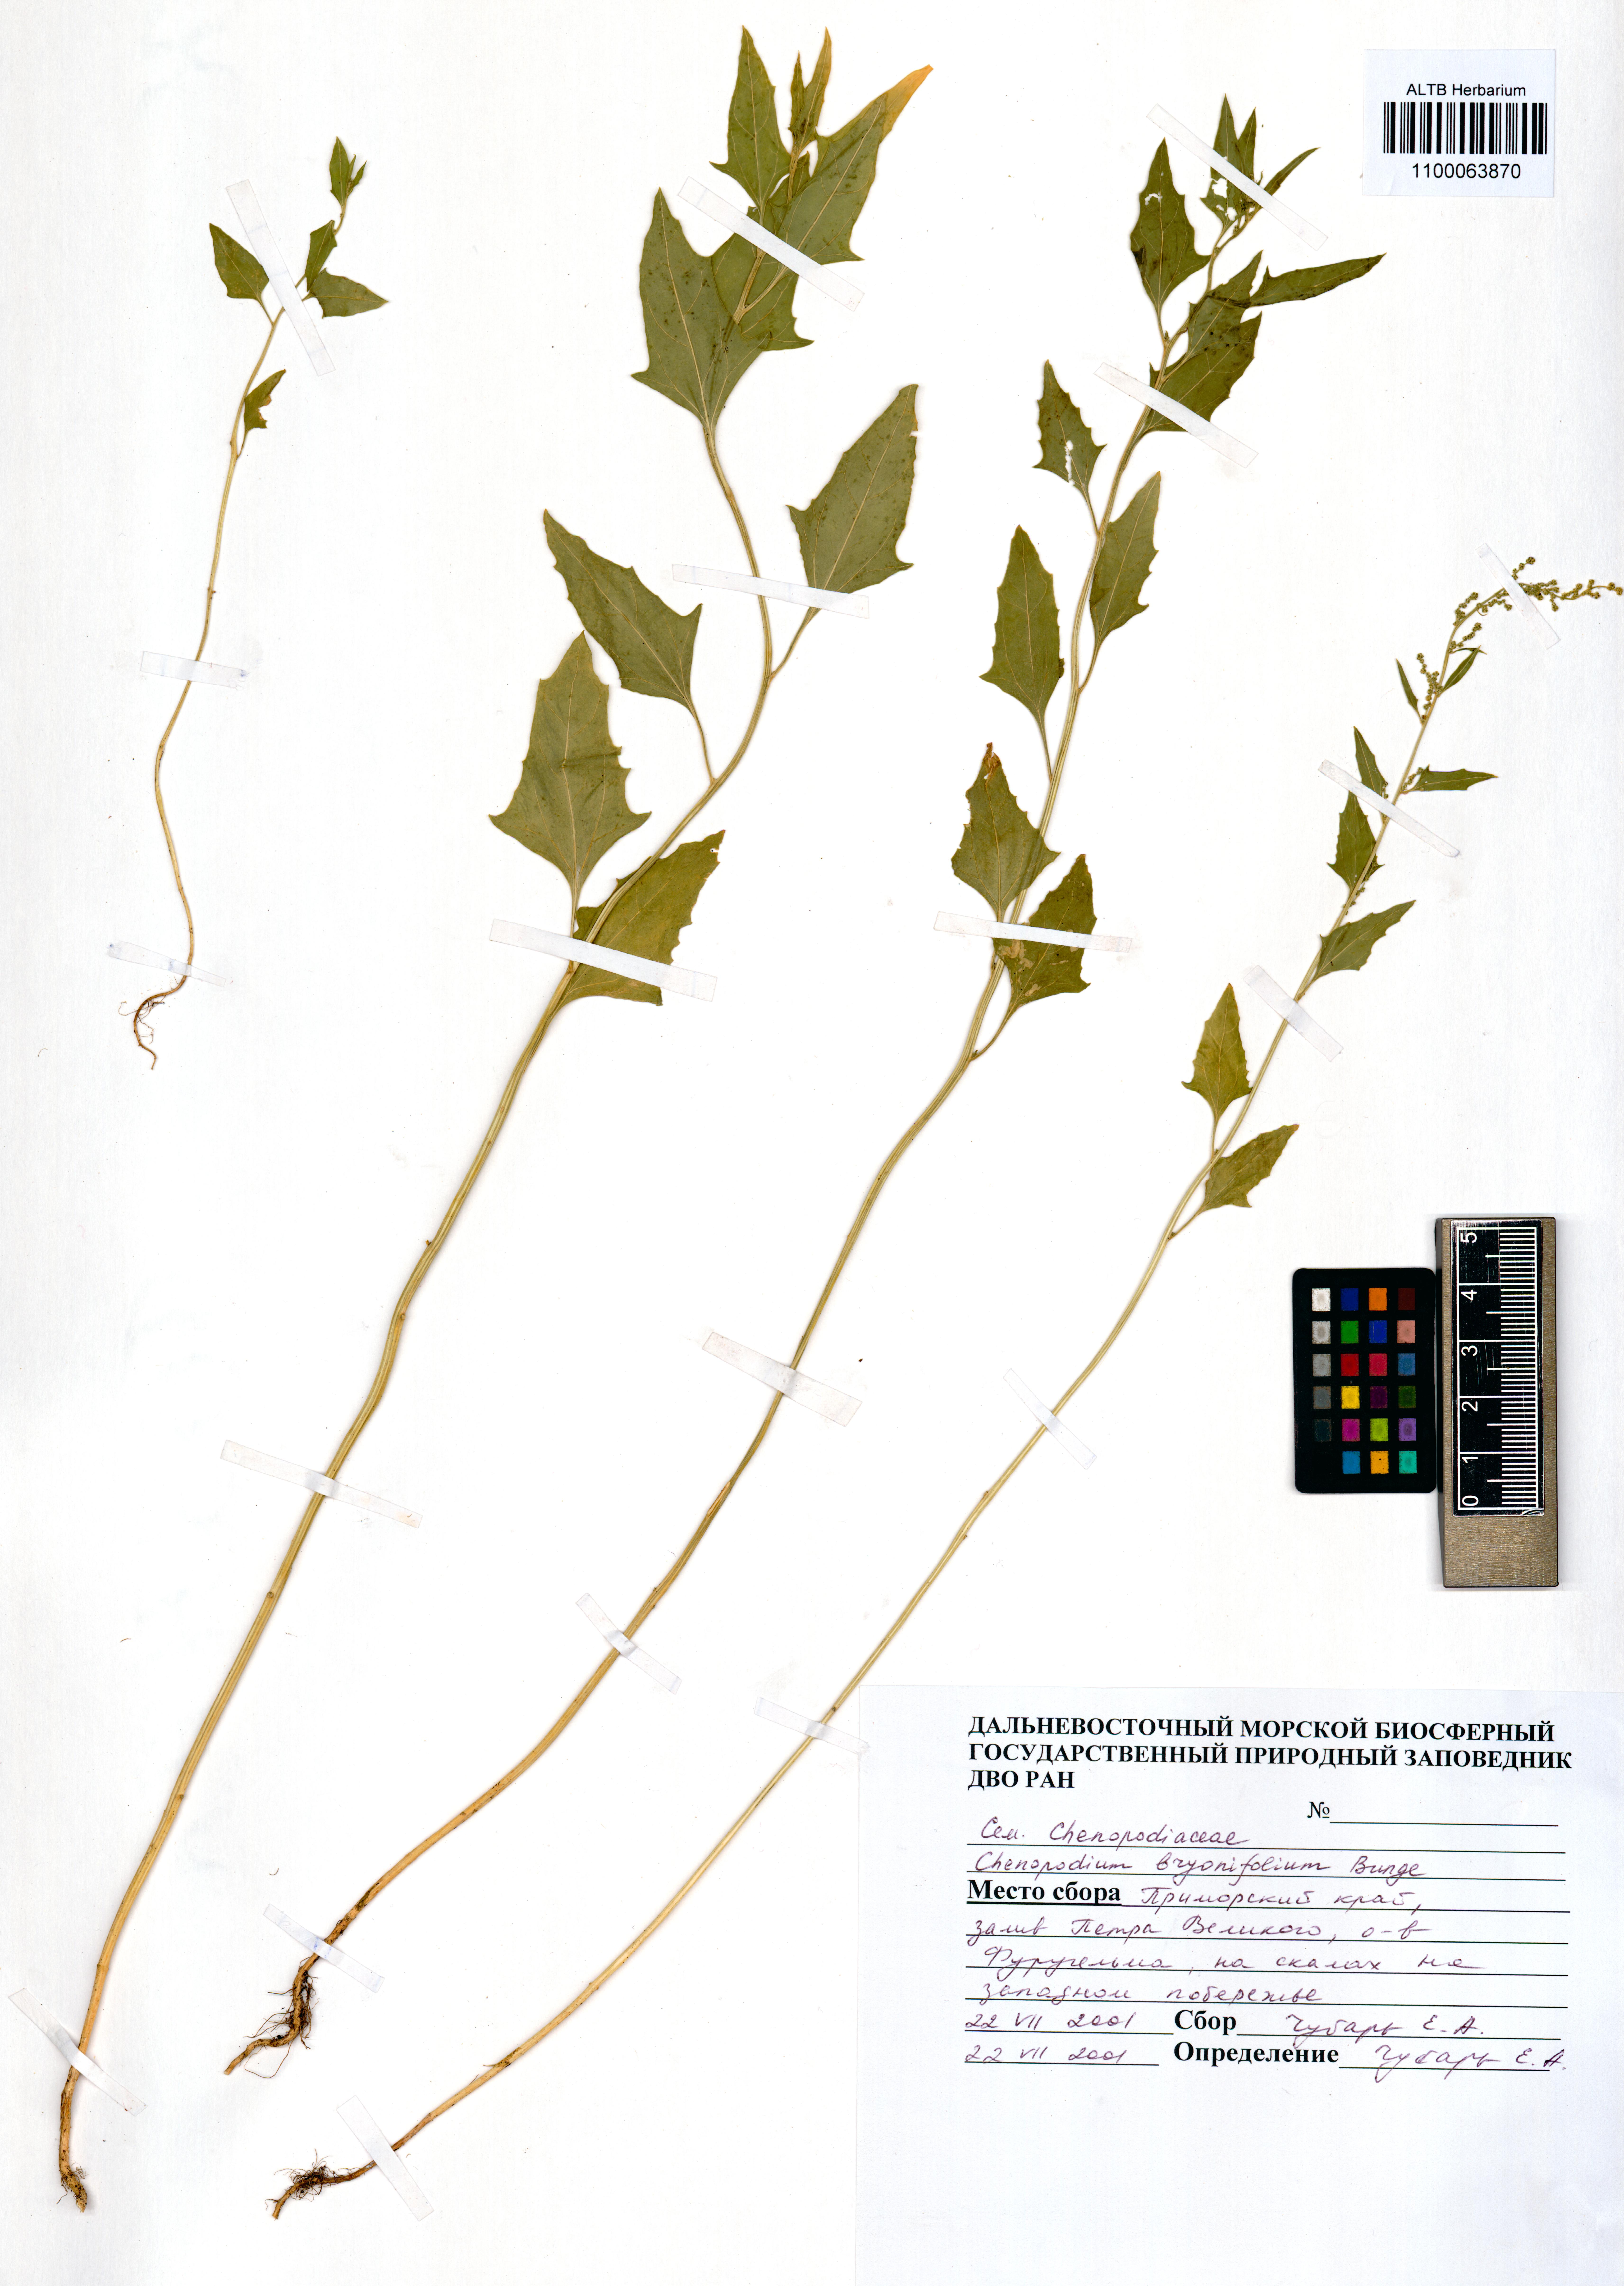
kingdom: Plantae
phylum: Tracheophyta
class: Magnoliopsida
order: Caryophyllales
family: Amaranthaceae
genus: Chenopodium
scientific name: Chenopodium bryoniifolium
